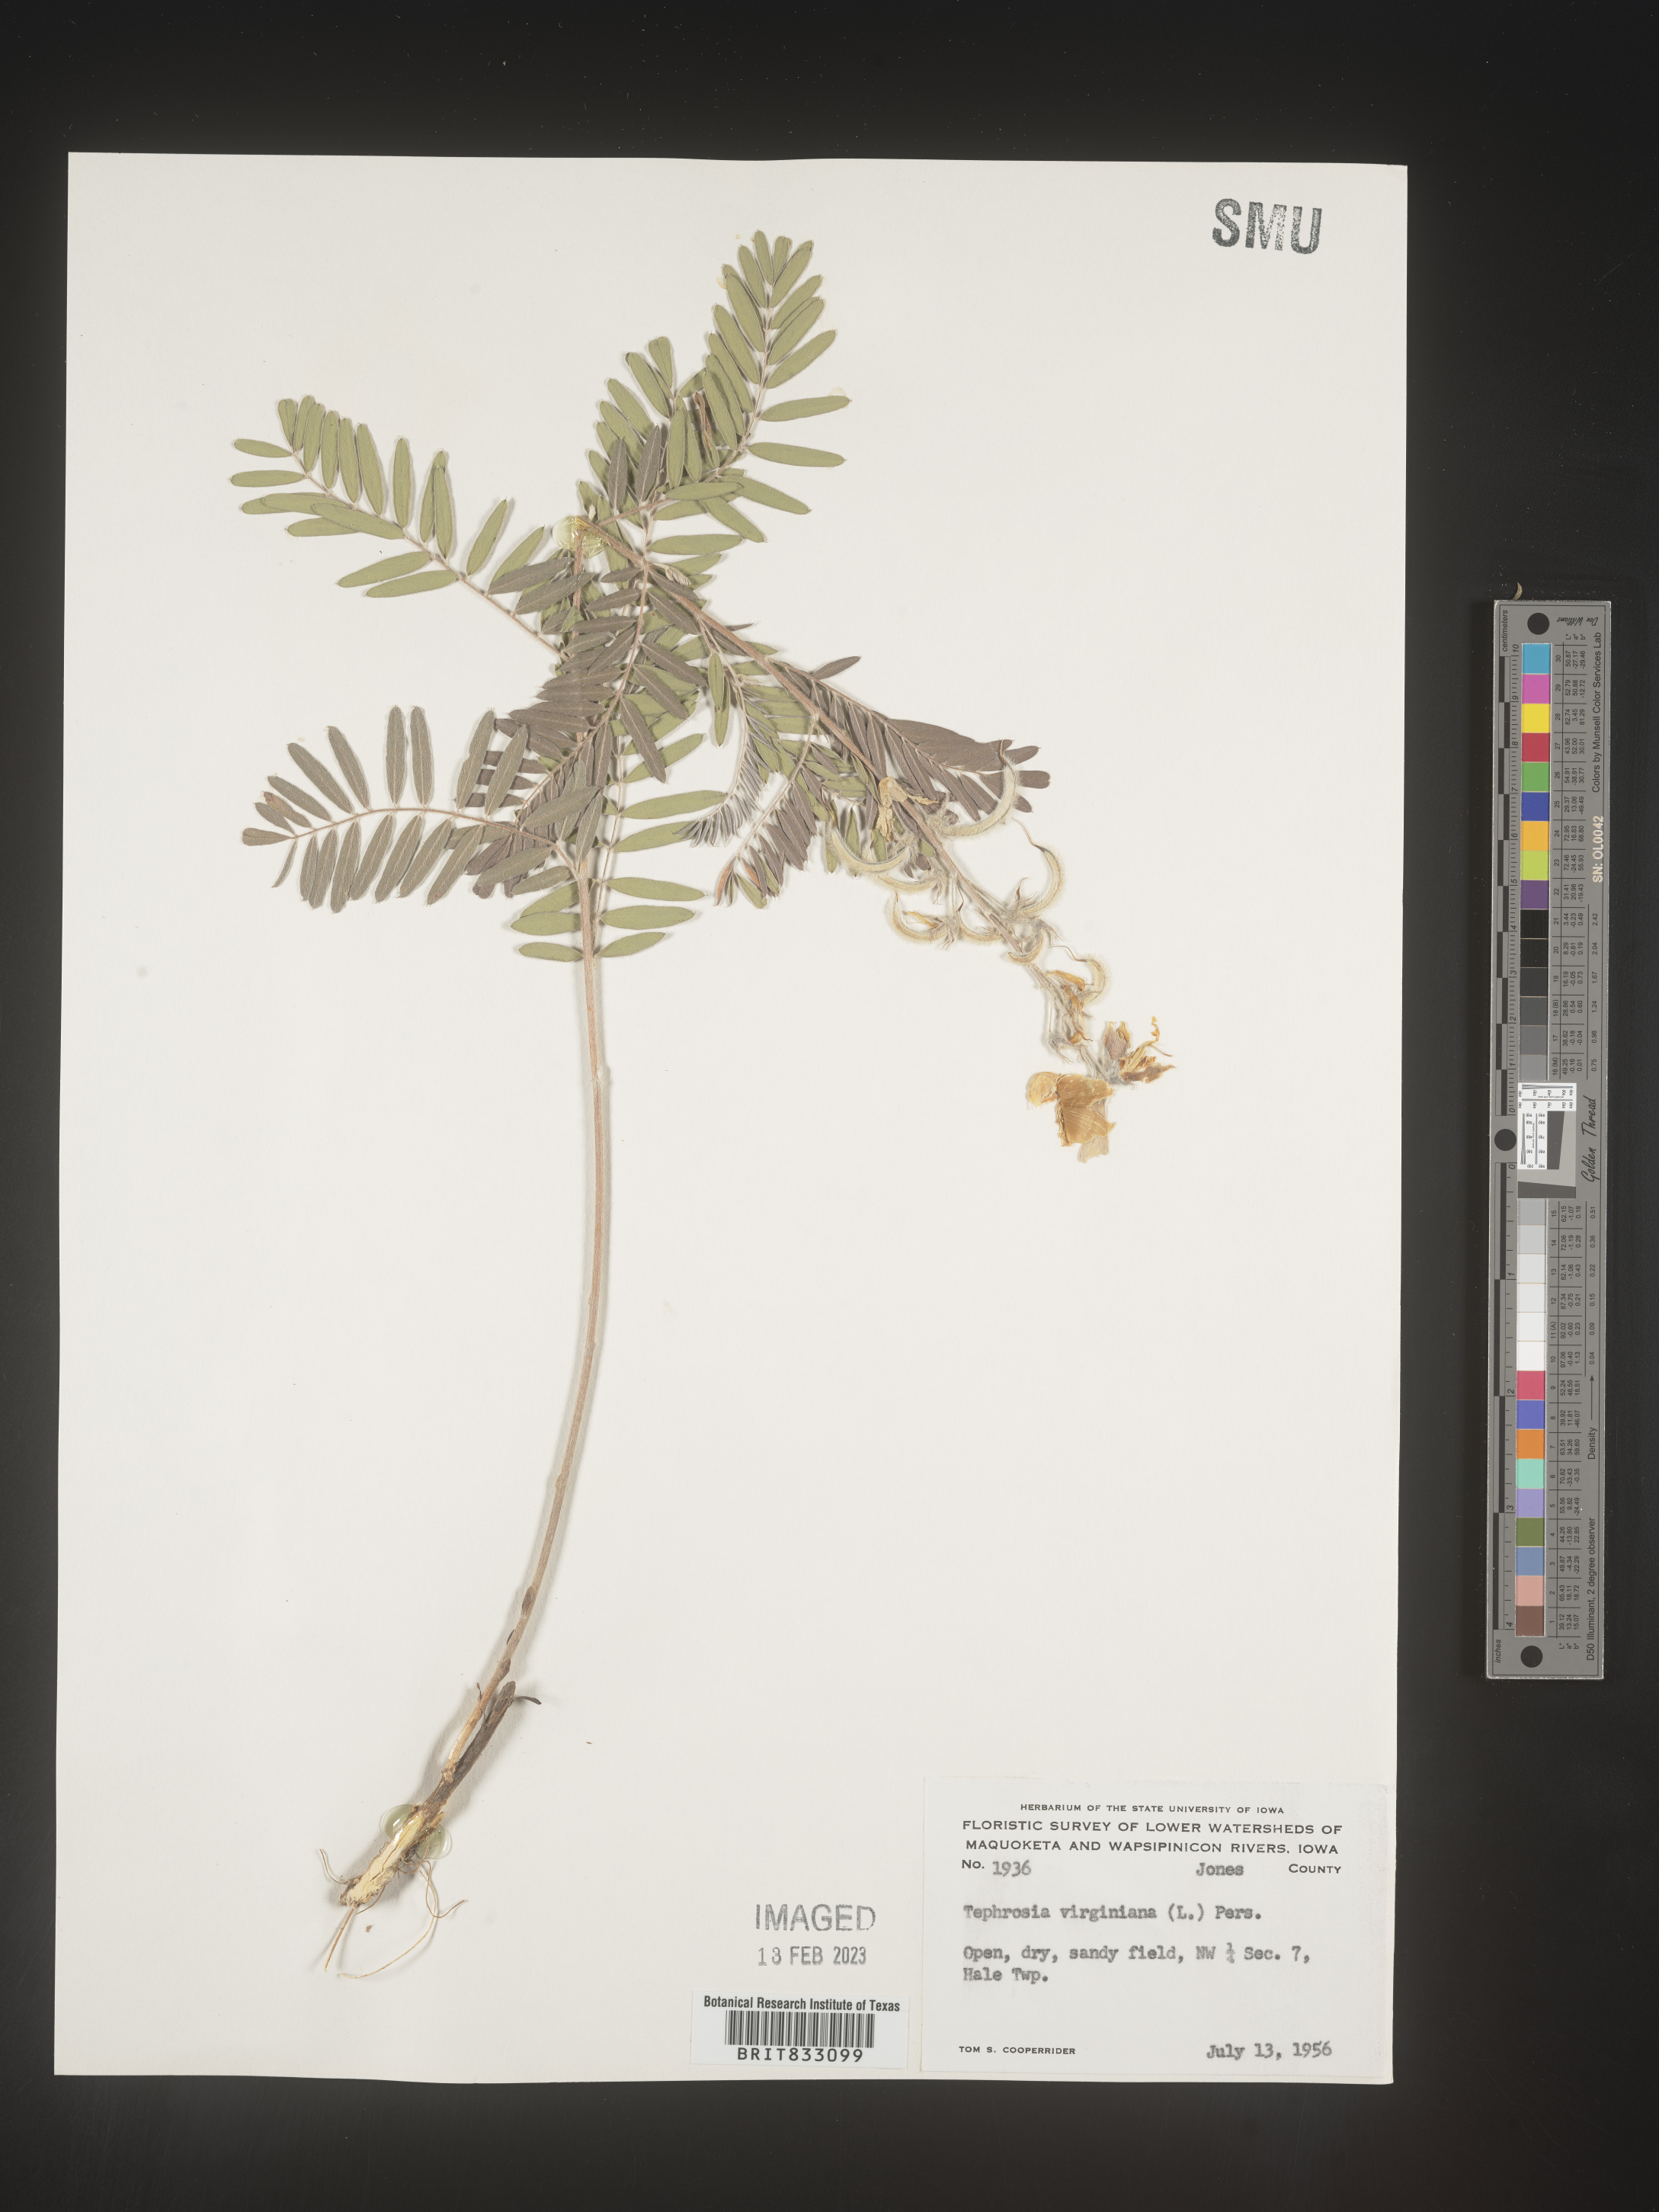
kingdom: Plantae
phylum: Tracheophyta
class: Magnoliopsida
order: Fabales
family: Fabaceae
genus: Tephrosia
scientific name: Tephrosia virginiana
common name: Rabbit-pea
